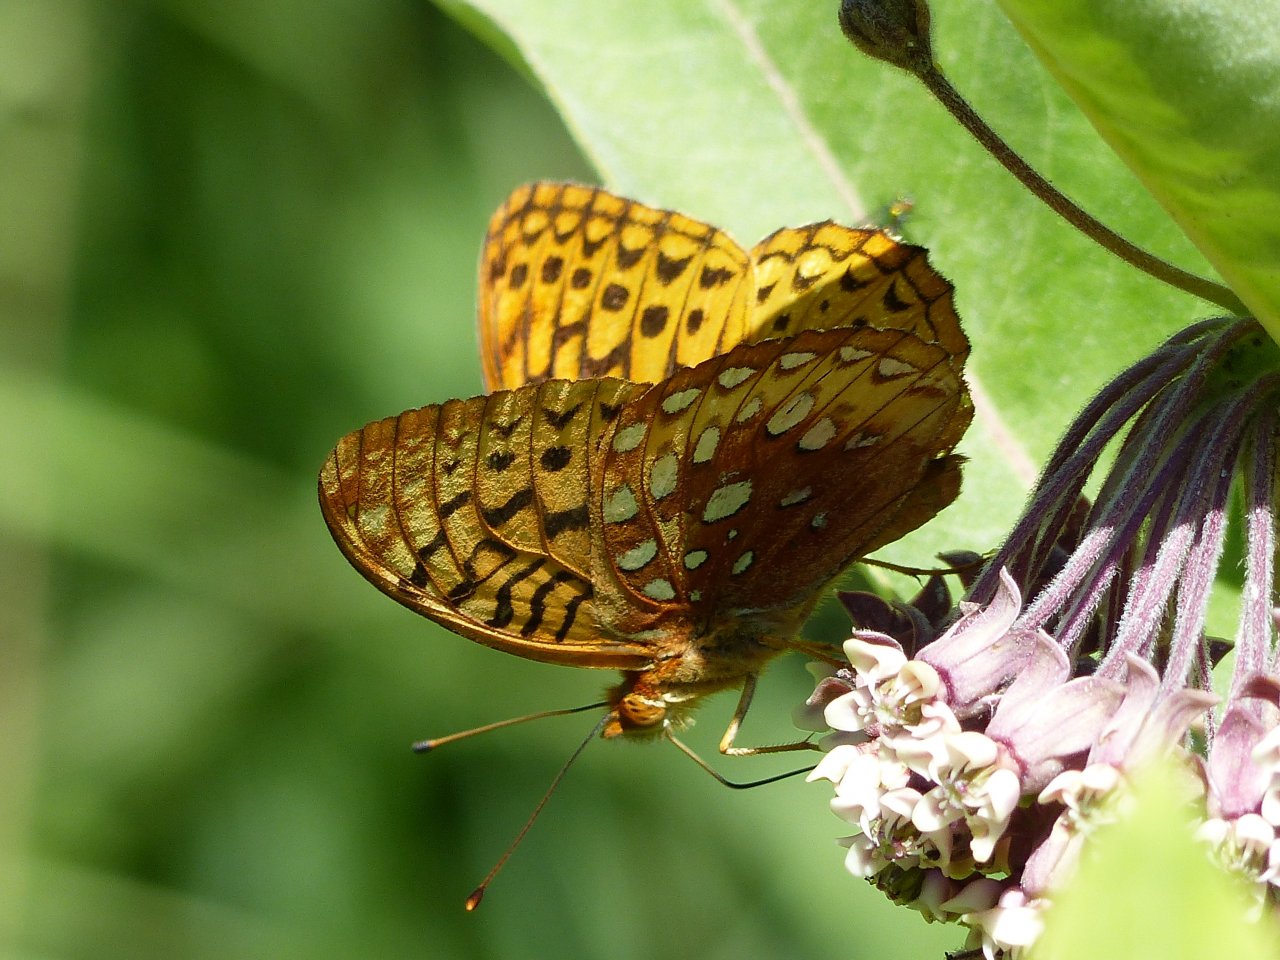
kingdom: Animalia
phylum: Arthropoda
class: Insecta
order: Lepidoptera
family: Nymphalidae
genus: Speyeria
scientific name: Speyeria cybele
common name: Great Spangled Fritillary
